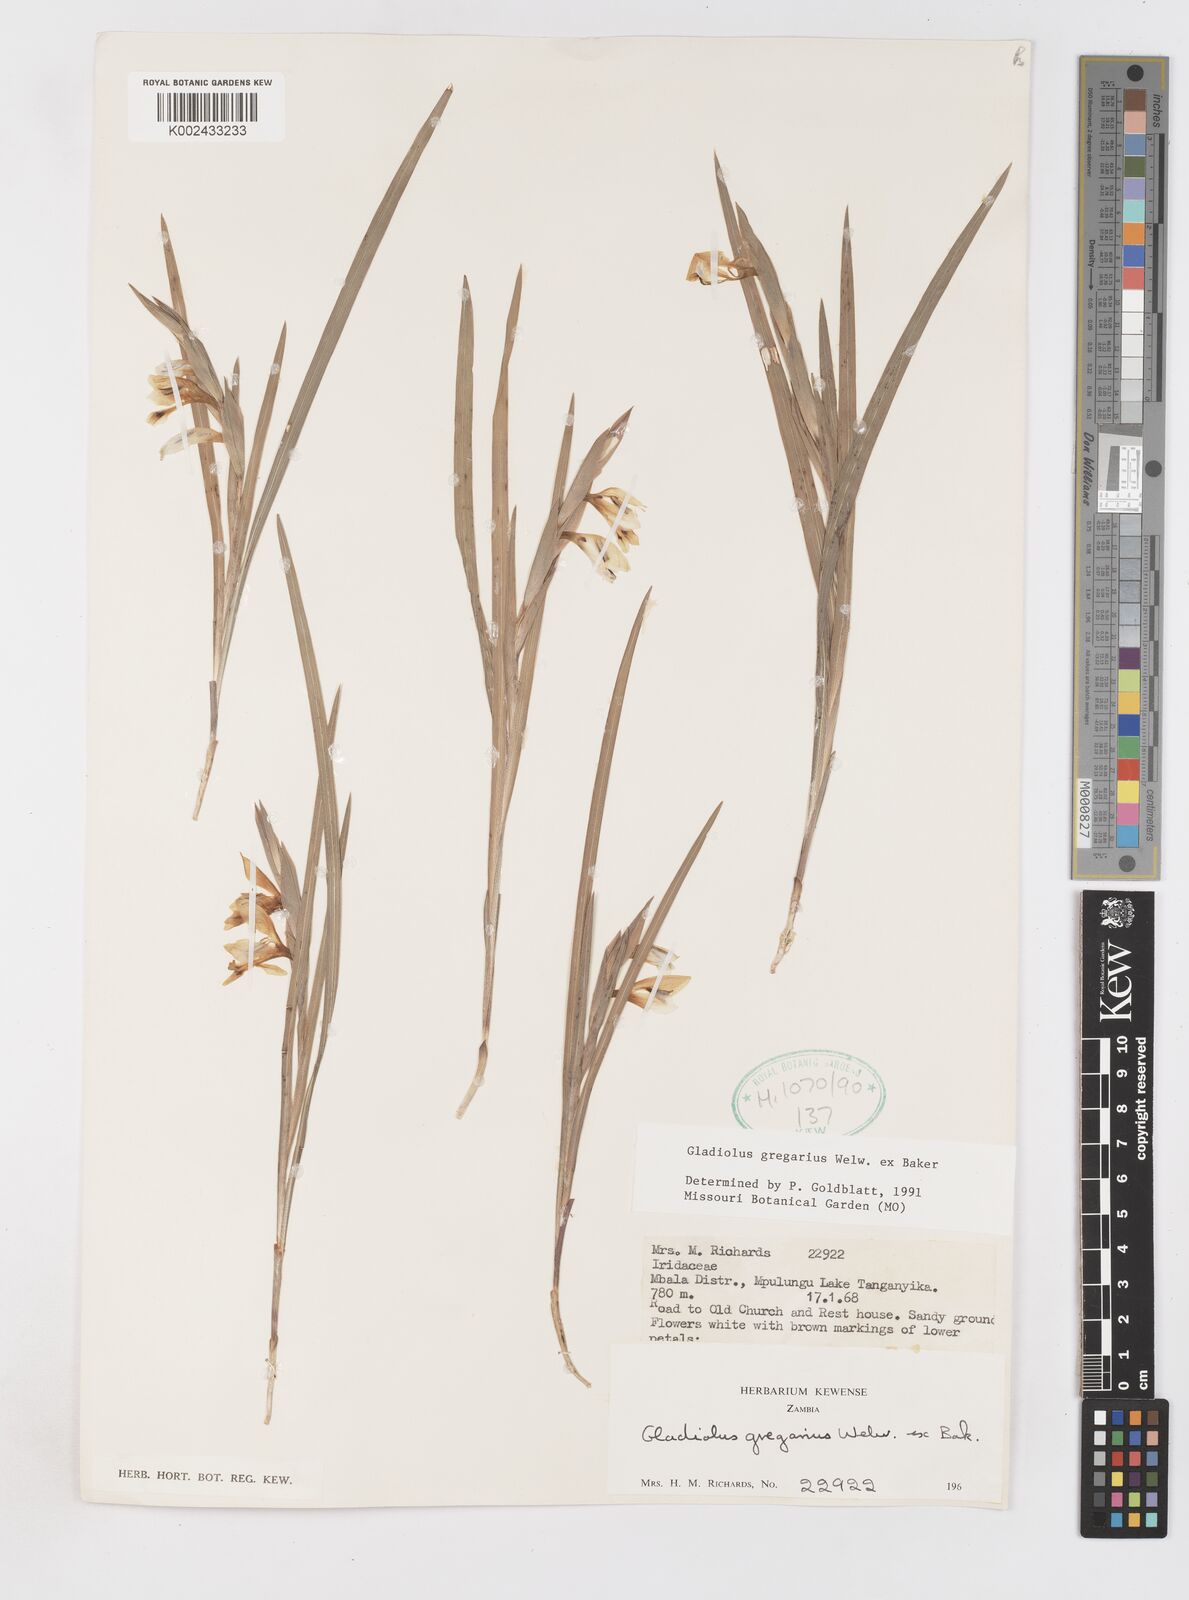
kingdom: Plantae
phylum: Tracheophyta
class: Liliopsida
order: Asparagales
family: Iridaceae
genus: Gladiolus
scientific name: Gladiolus gregarius
